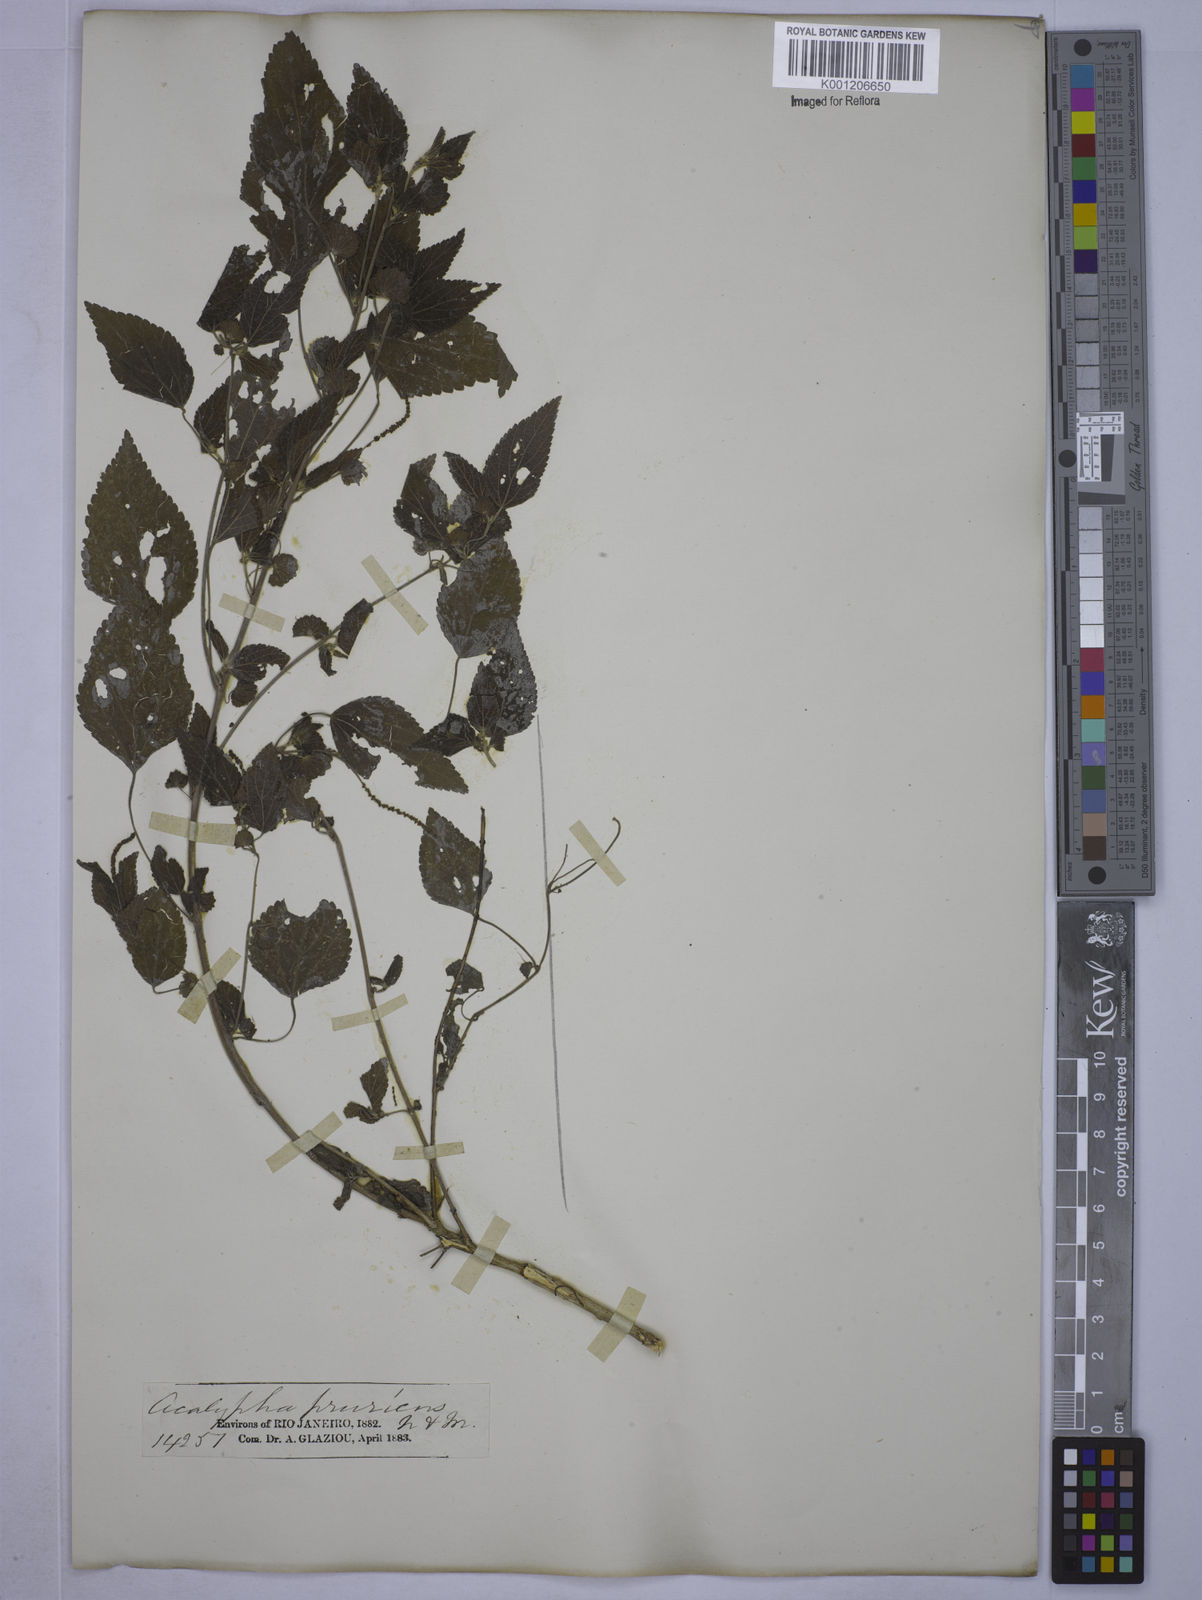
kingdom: Plantae
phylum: Tracheophyta
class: Magnoliopsida
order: Malpighiales
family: Euphorbiaceae
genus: Acalypha
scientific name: Acalypha pruriens
